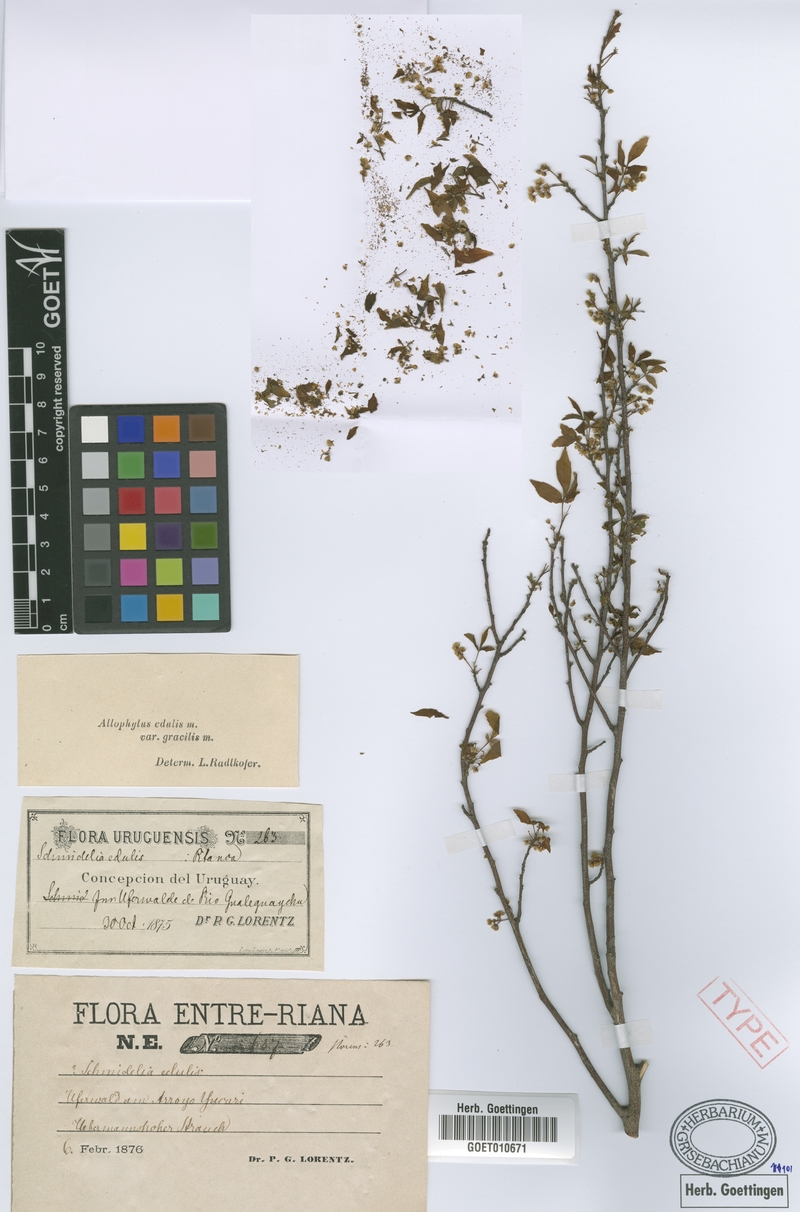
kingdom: Plantae
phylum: Tracheophyta
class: Magnoliopsida
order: Sapindales
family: Sapindaceae
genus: Allophylus
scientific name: Allophylus edulis
